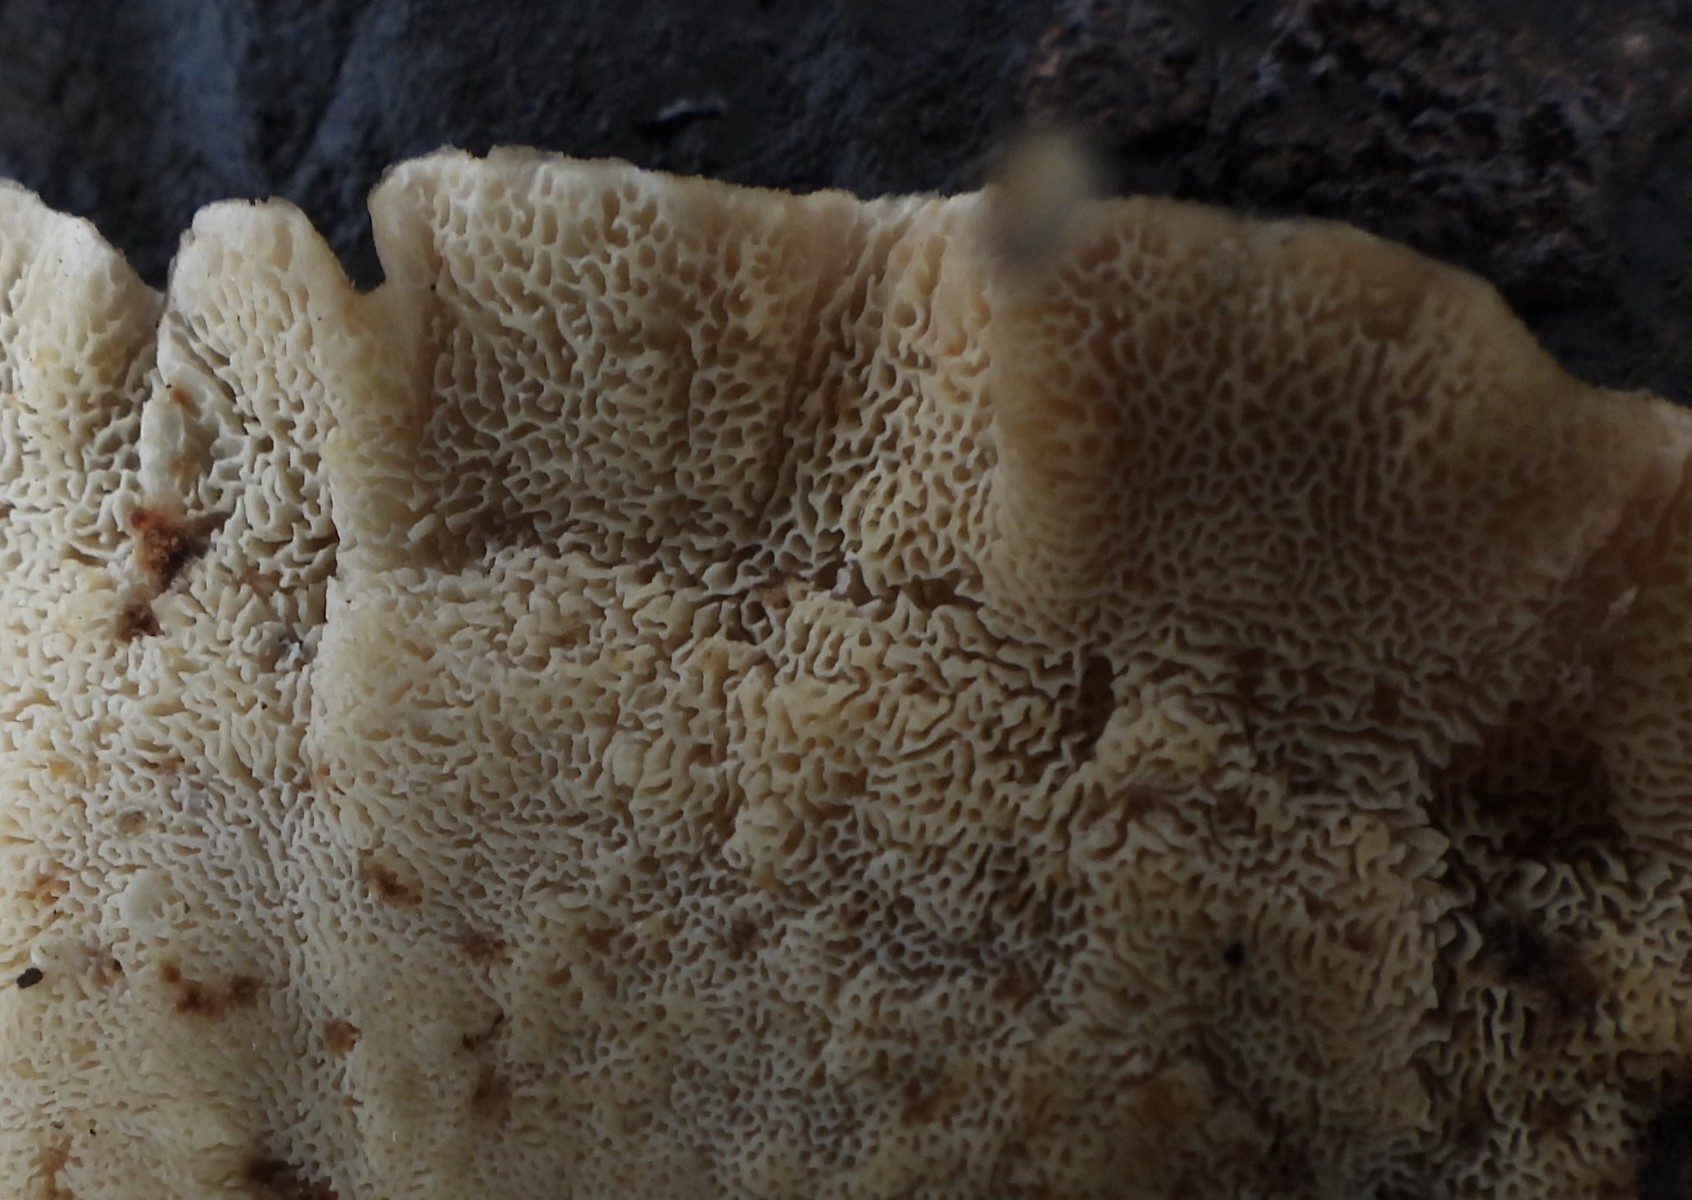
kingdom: Fungi
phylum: Basidiomycota
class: Agaricomycetes
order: Polyporales
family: Polyporaceae
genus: Trametes
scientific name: Trametes versicolor
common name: broget læderporesvamp
